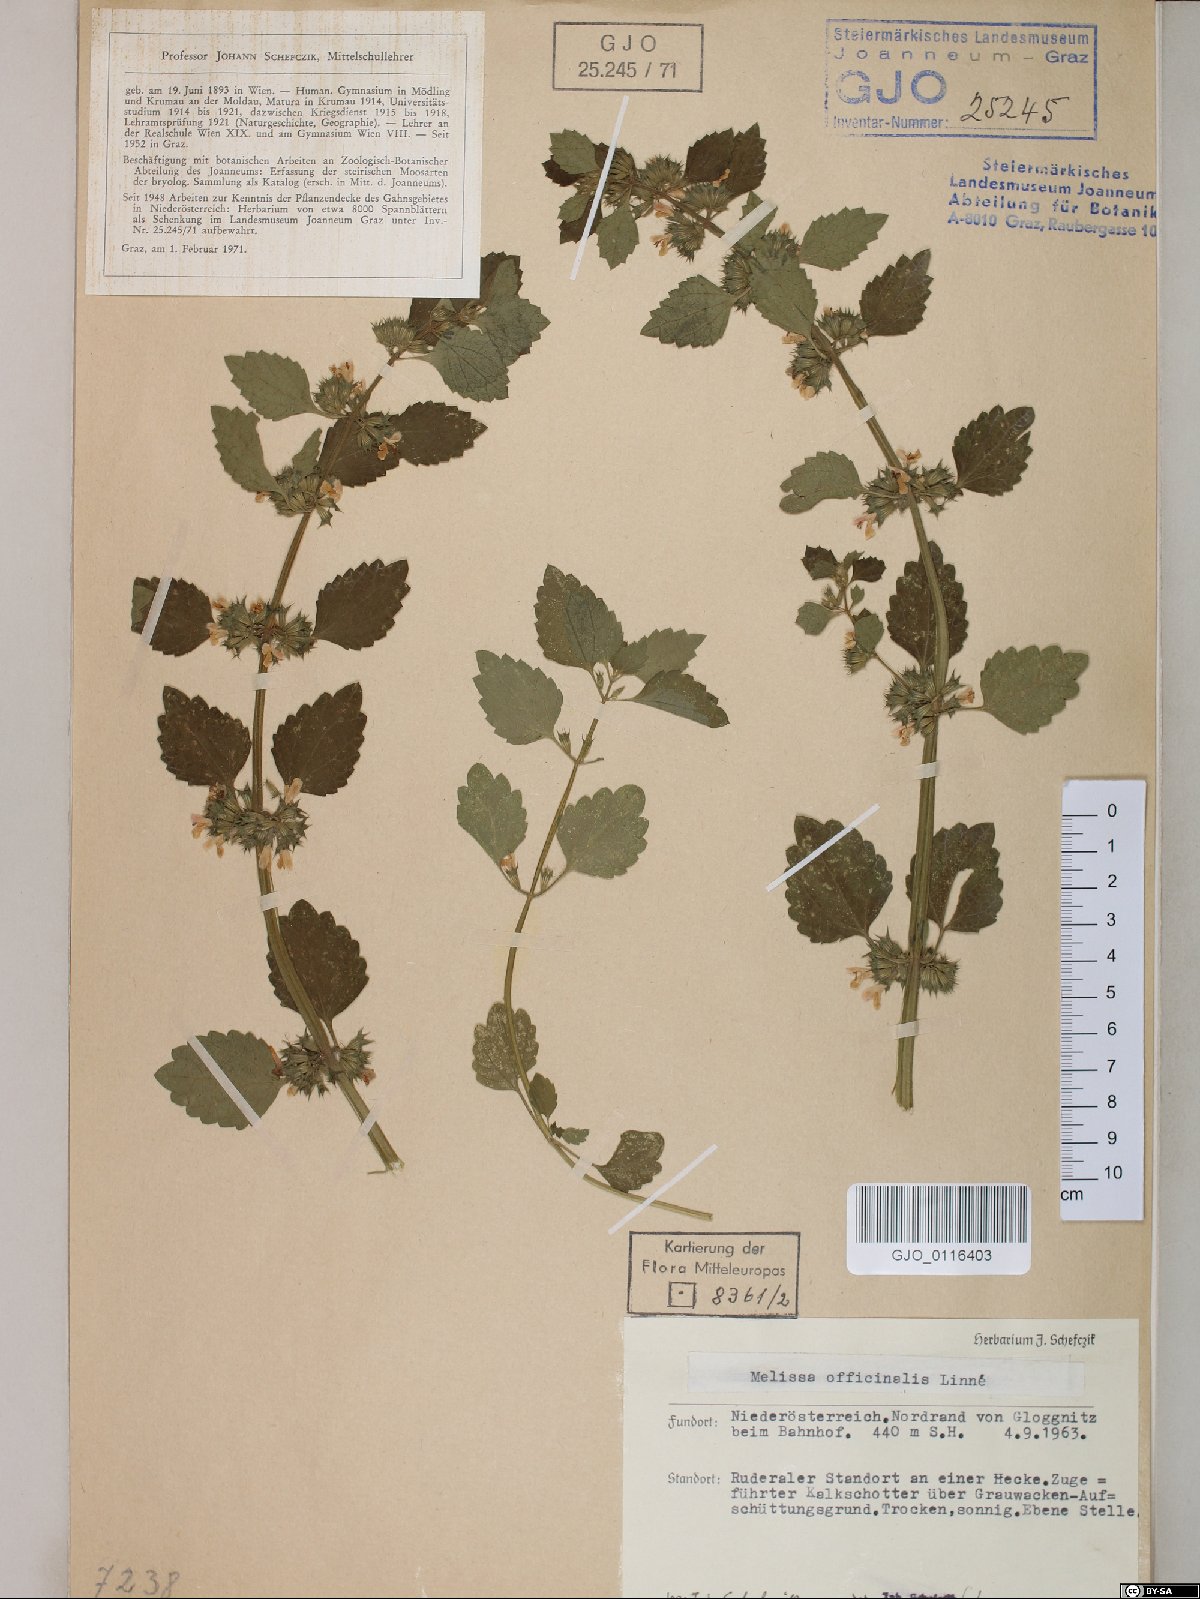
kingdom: Plantae
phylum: Tracheophyta
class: Magnoliopsida
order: Lamiales
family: Lamiaceae
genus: Melissa
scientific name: Melissa officinalis
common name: Balm
